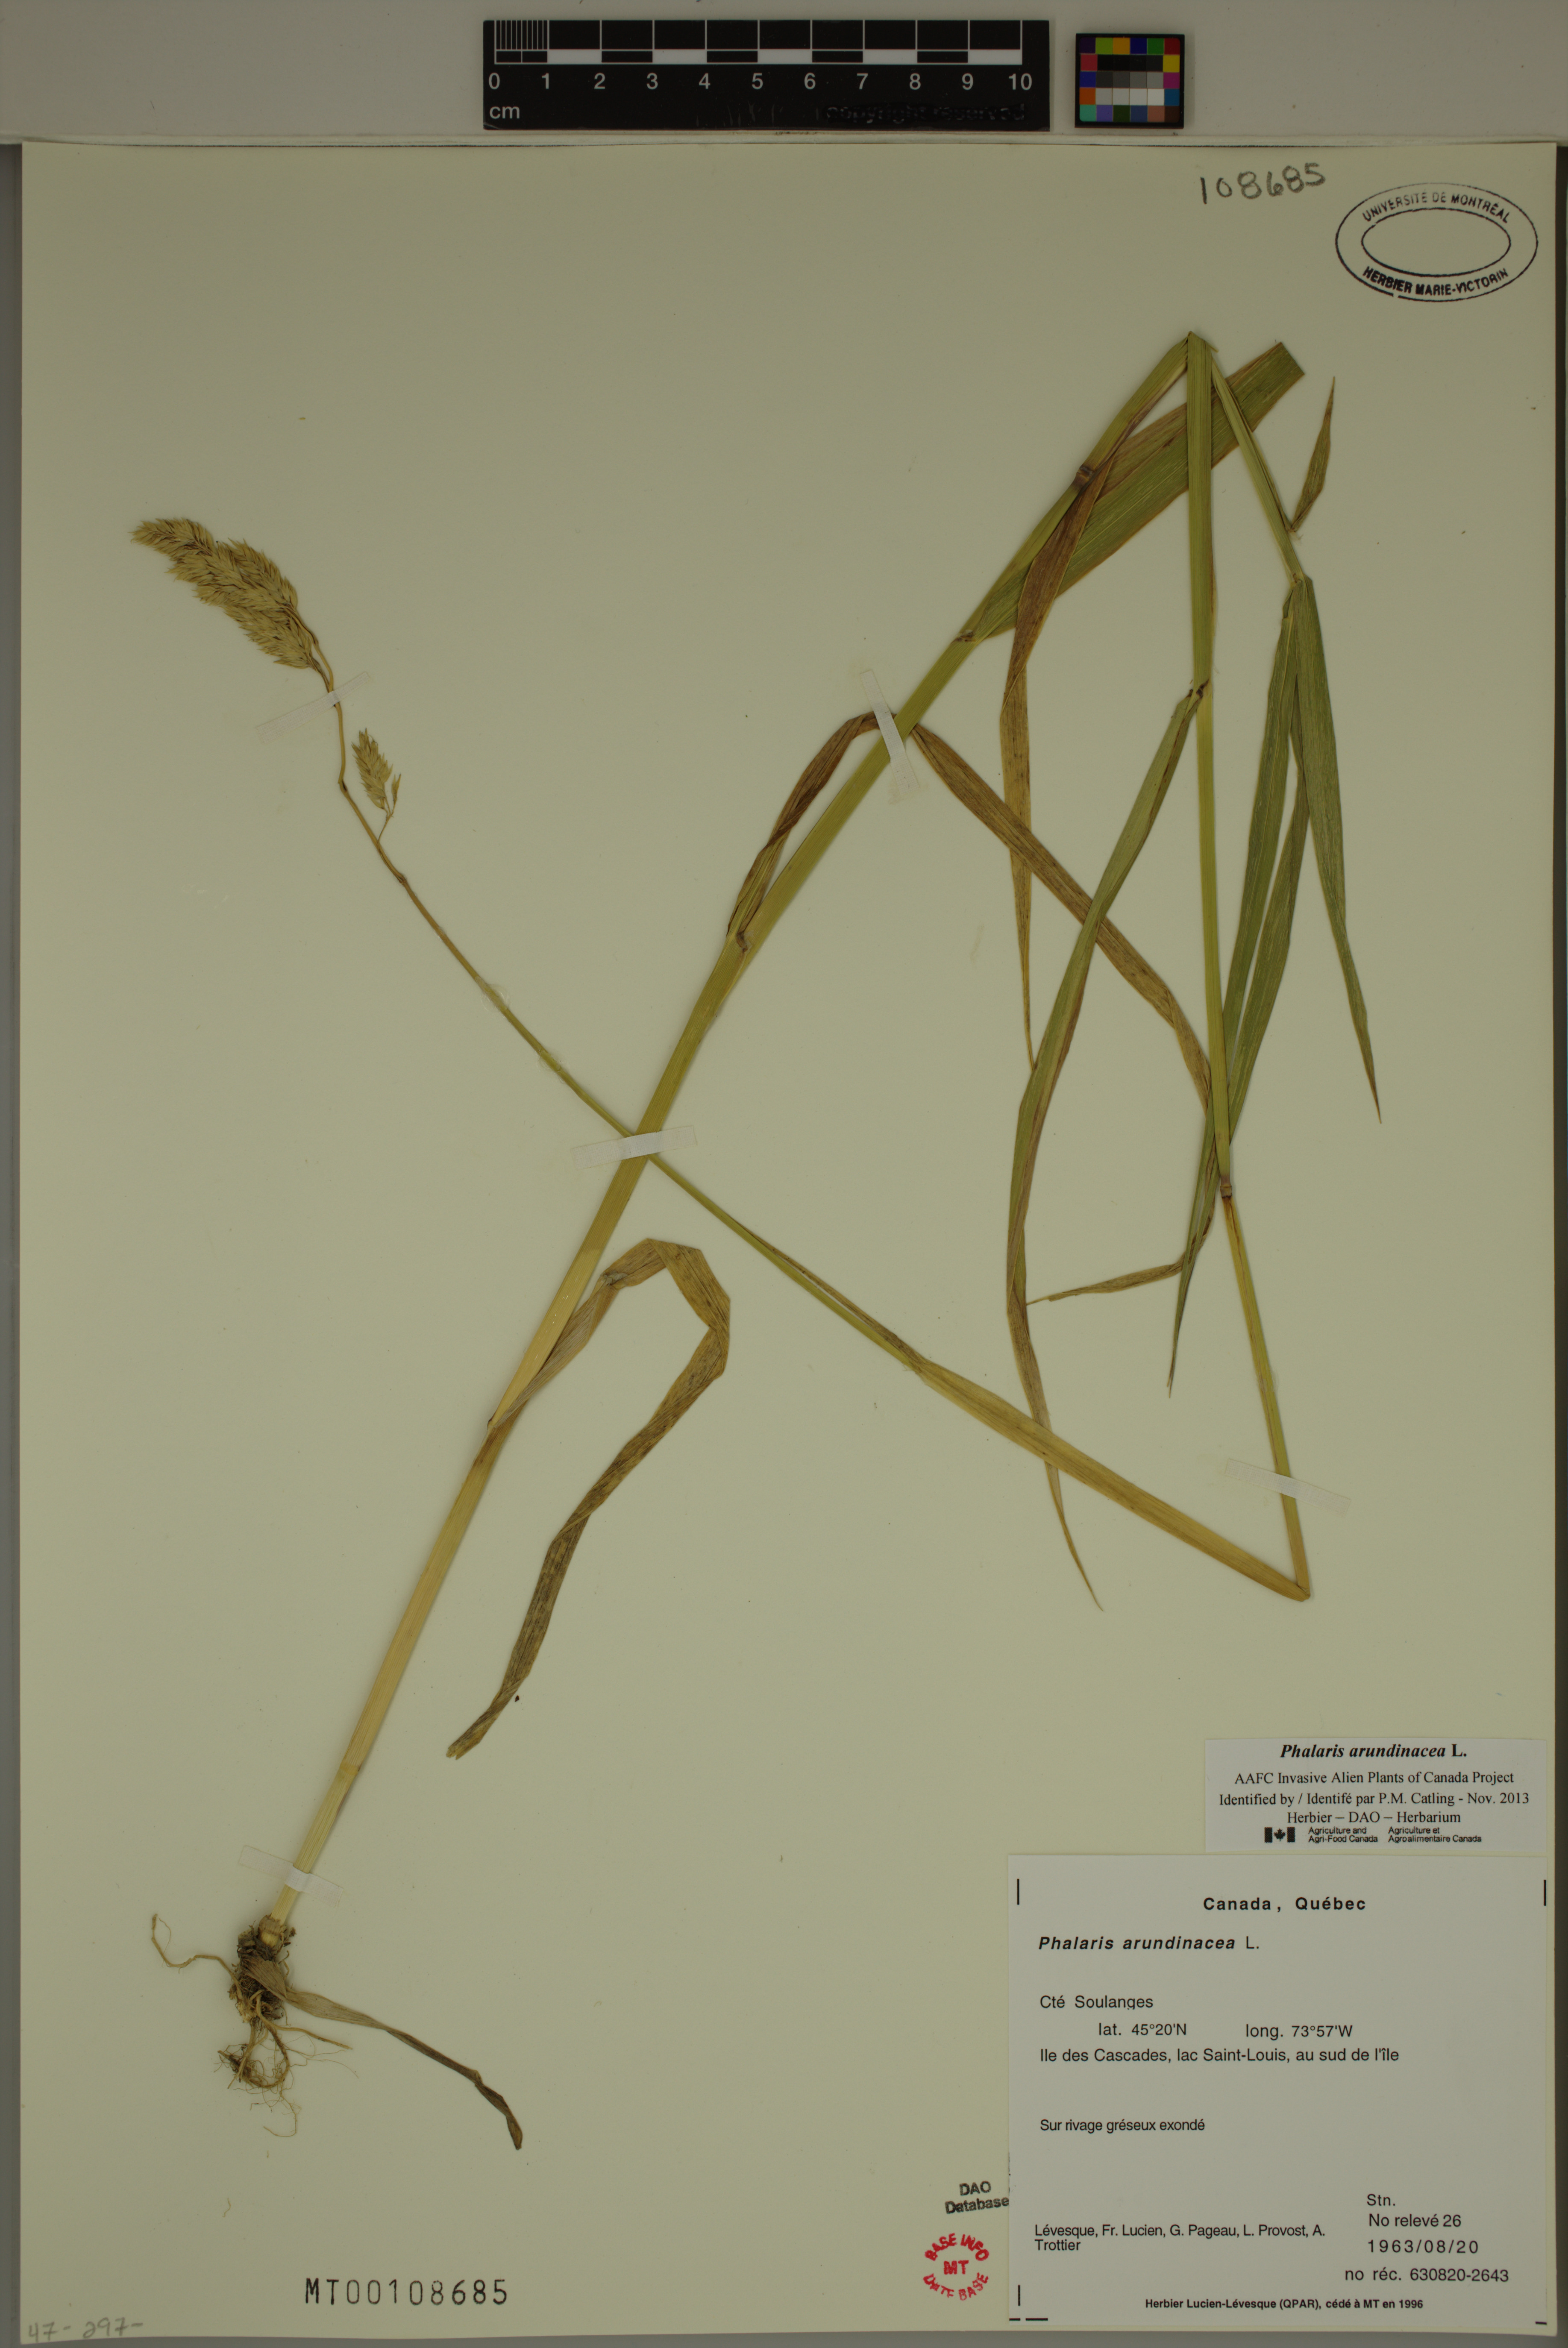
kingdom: Plantae
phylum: Tracheophyta
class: Liliopsida
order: Poales
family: Poaceae
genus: Phalaris
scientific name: Phalaris arundinacea
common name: Reed canary-grass
